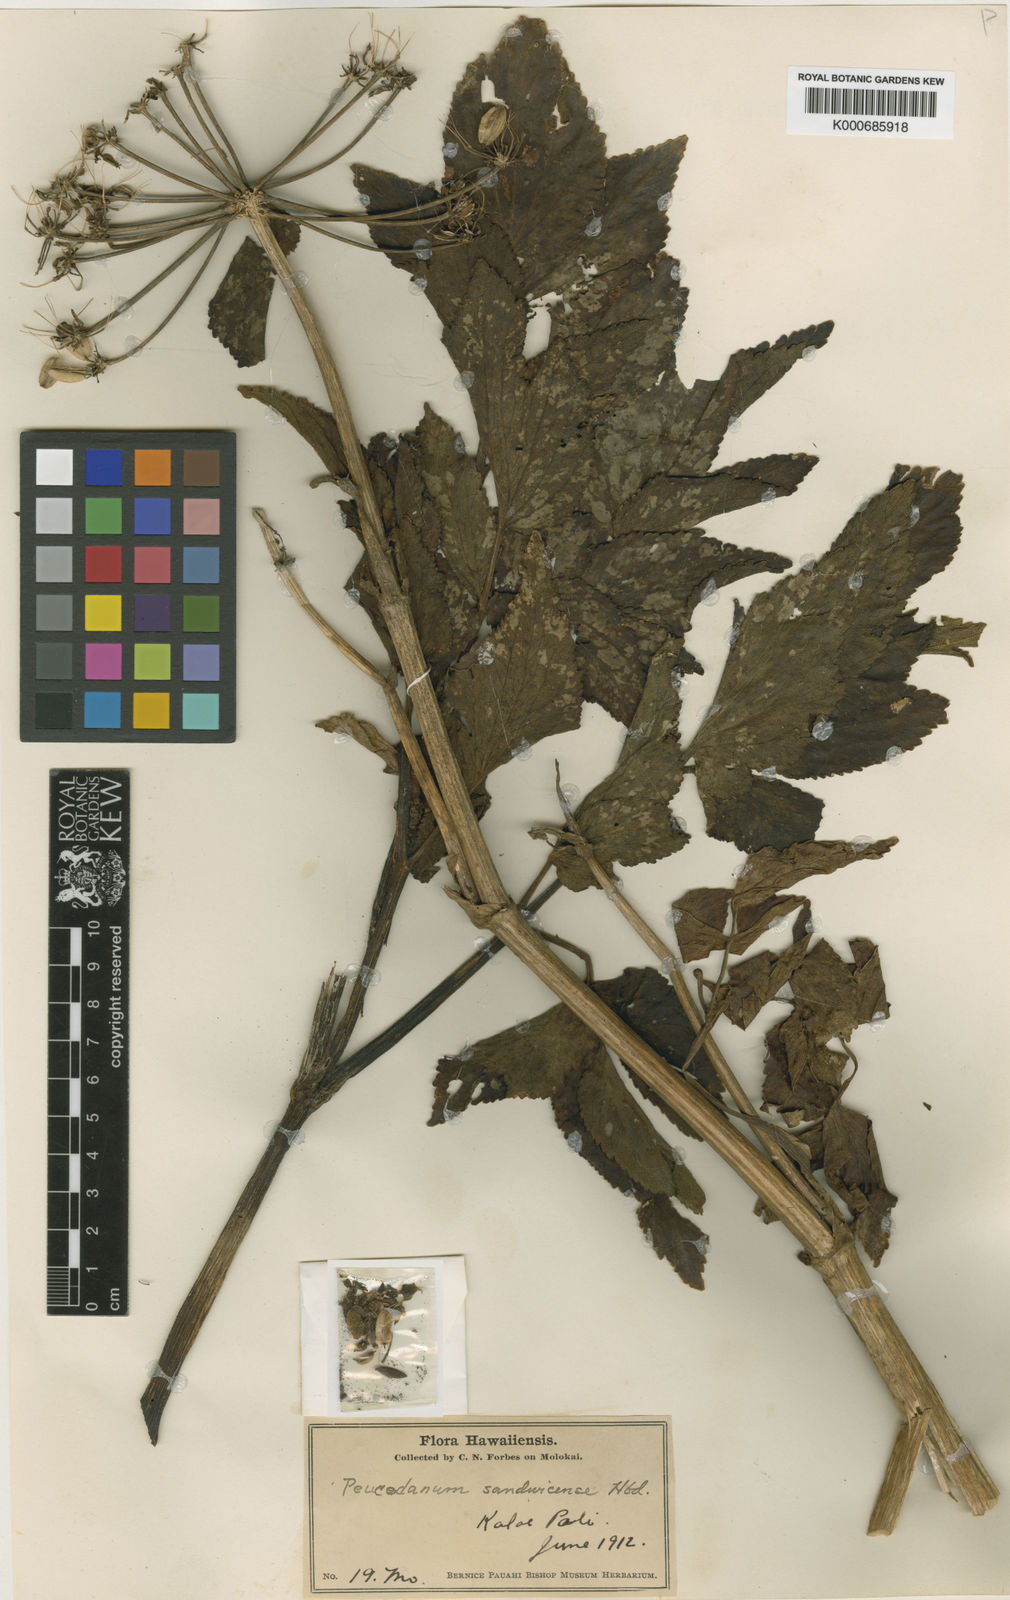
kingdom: Plantae
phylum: Tracheophyta
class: Magnoliopsida
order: Apiales
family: Apiaceae
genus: Peucedanum
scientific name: Peucedanum sandwicense
